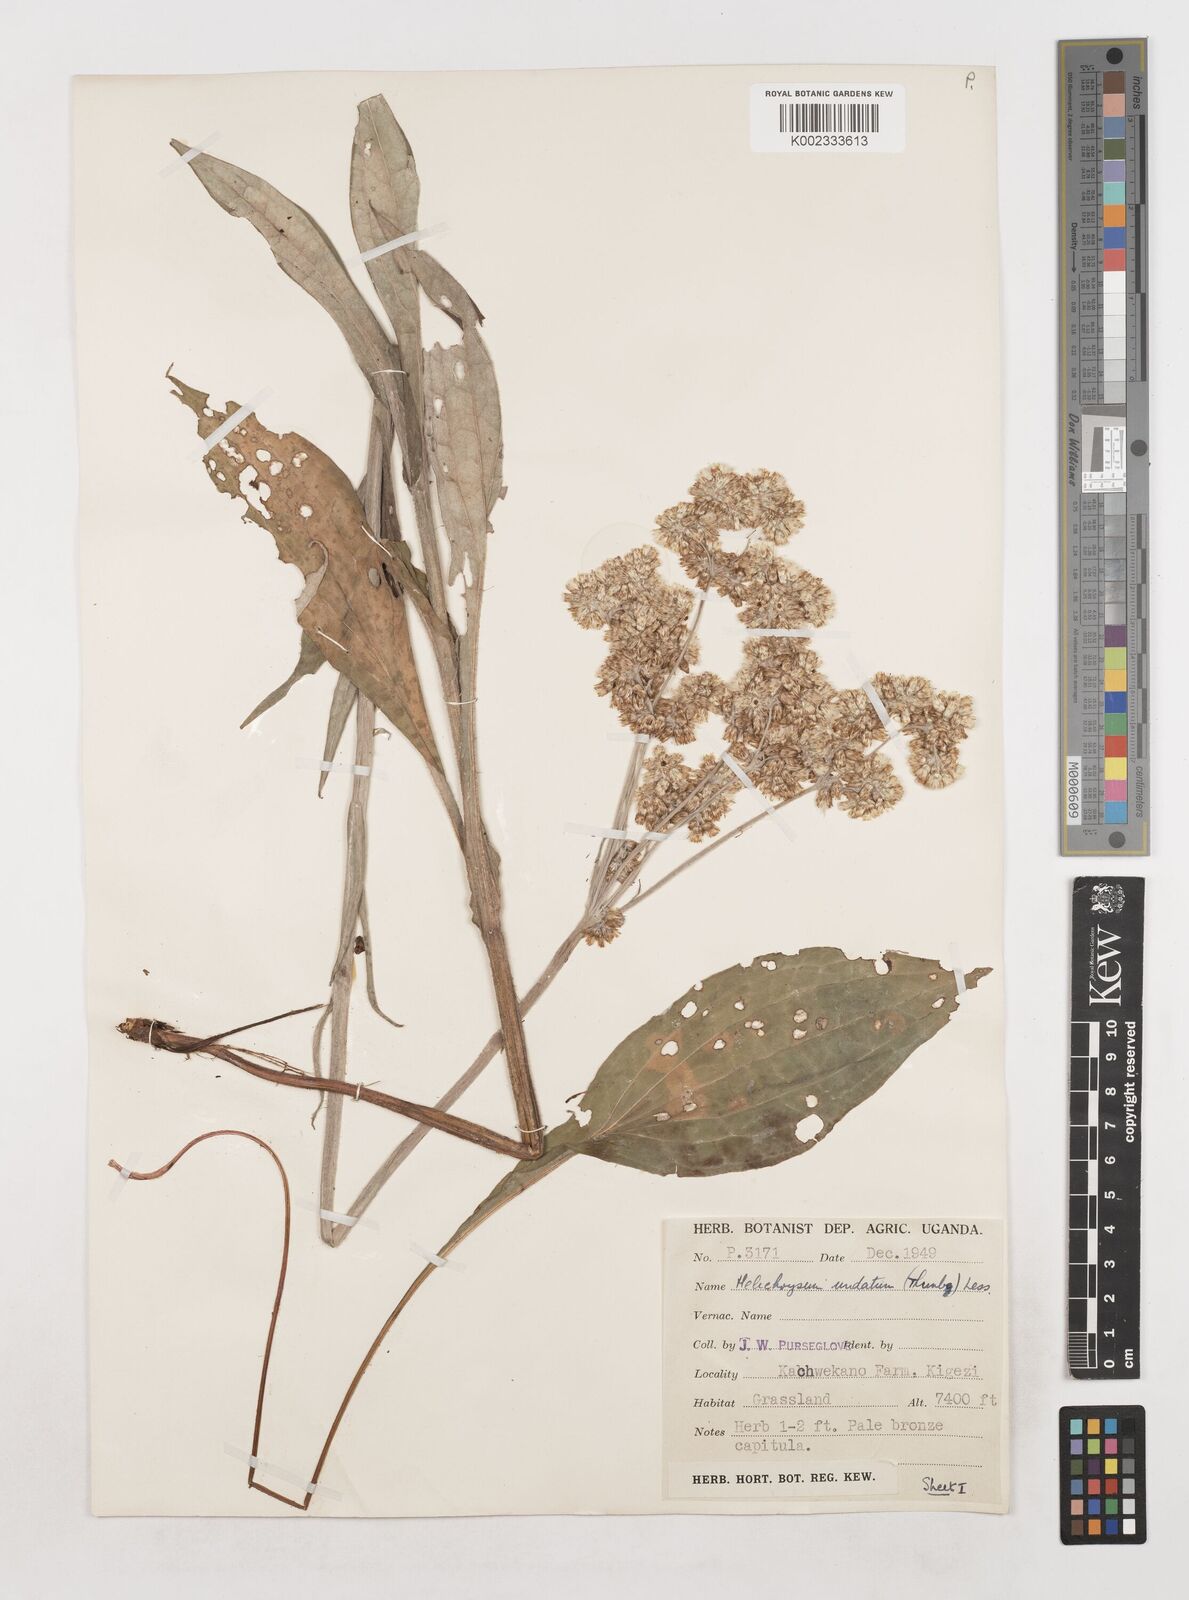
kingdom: Plantae
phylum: Tracheophyta
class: Magnoliopsida
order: Asterales
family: Asteraceae
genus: Helichrysum
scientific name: Helichrysum globosum
